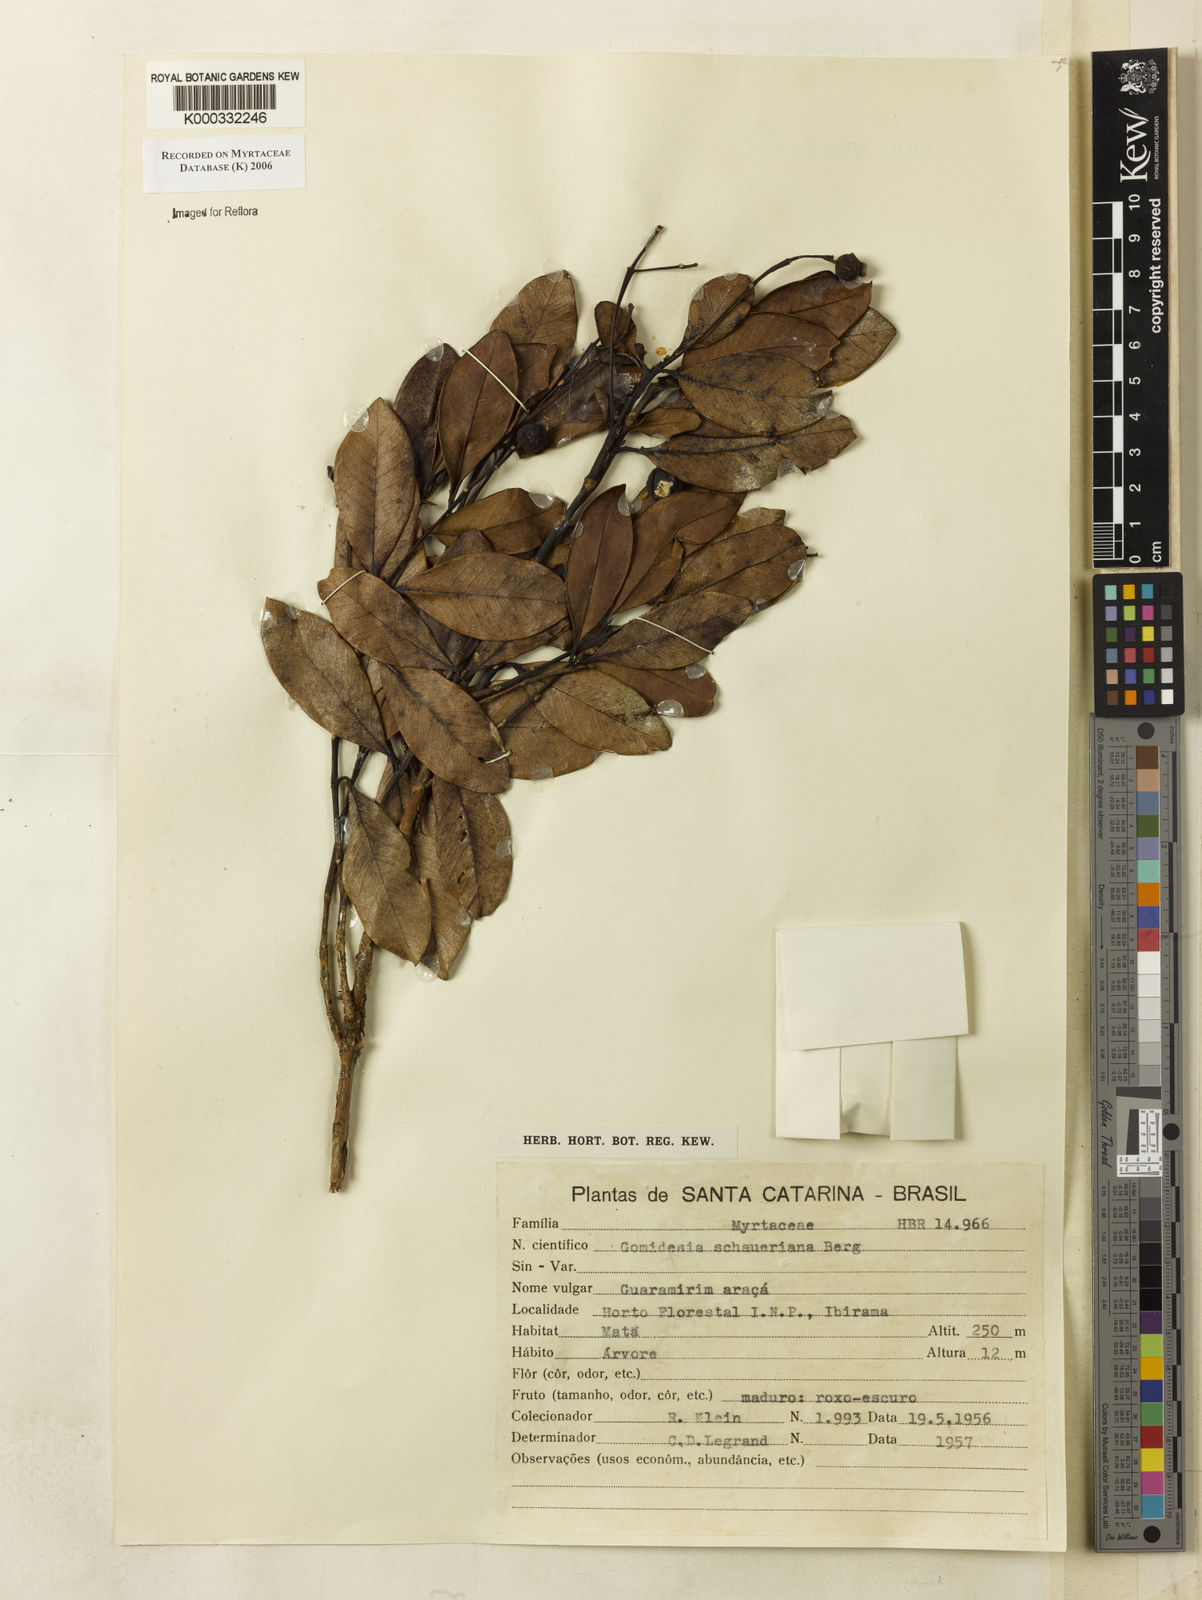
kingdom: Plantae
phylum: Tracheophyta
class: Magnoliopsida
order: Myrtales
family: Myrtaceae
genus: Myrcia
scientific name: Myrcia freyreissiana
